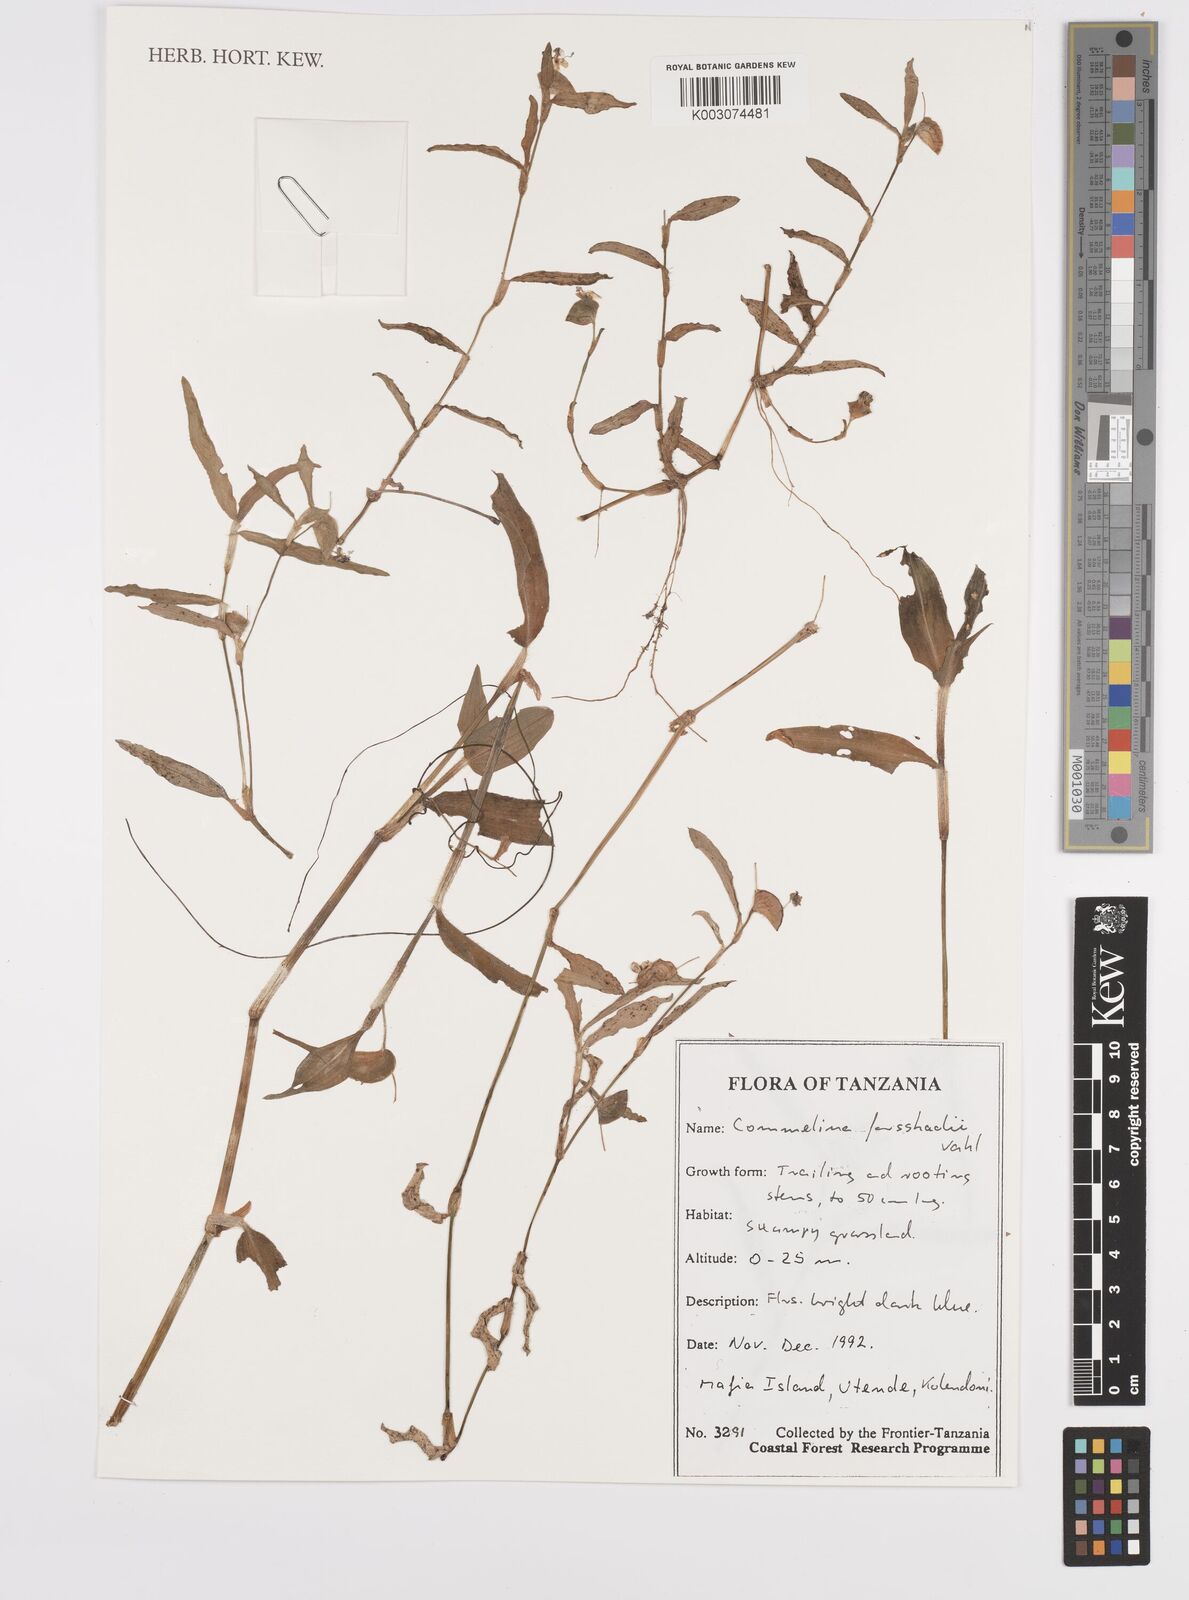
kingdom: Plantae
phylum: Tracheophyta
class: Liliopsida
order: Commelinales
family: Commelinaceae
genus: Commelina
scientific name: Commelina
